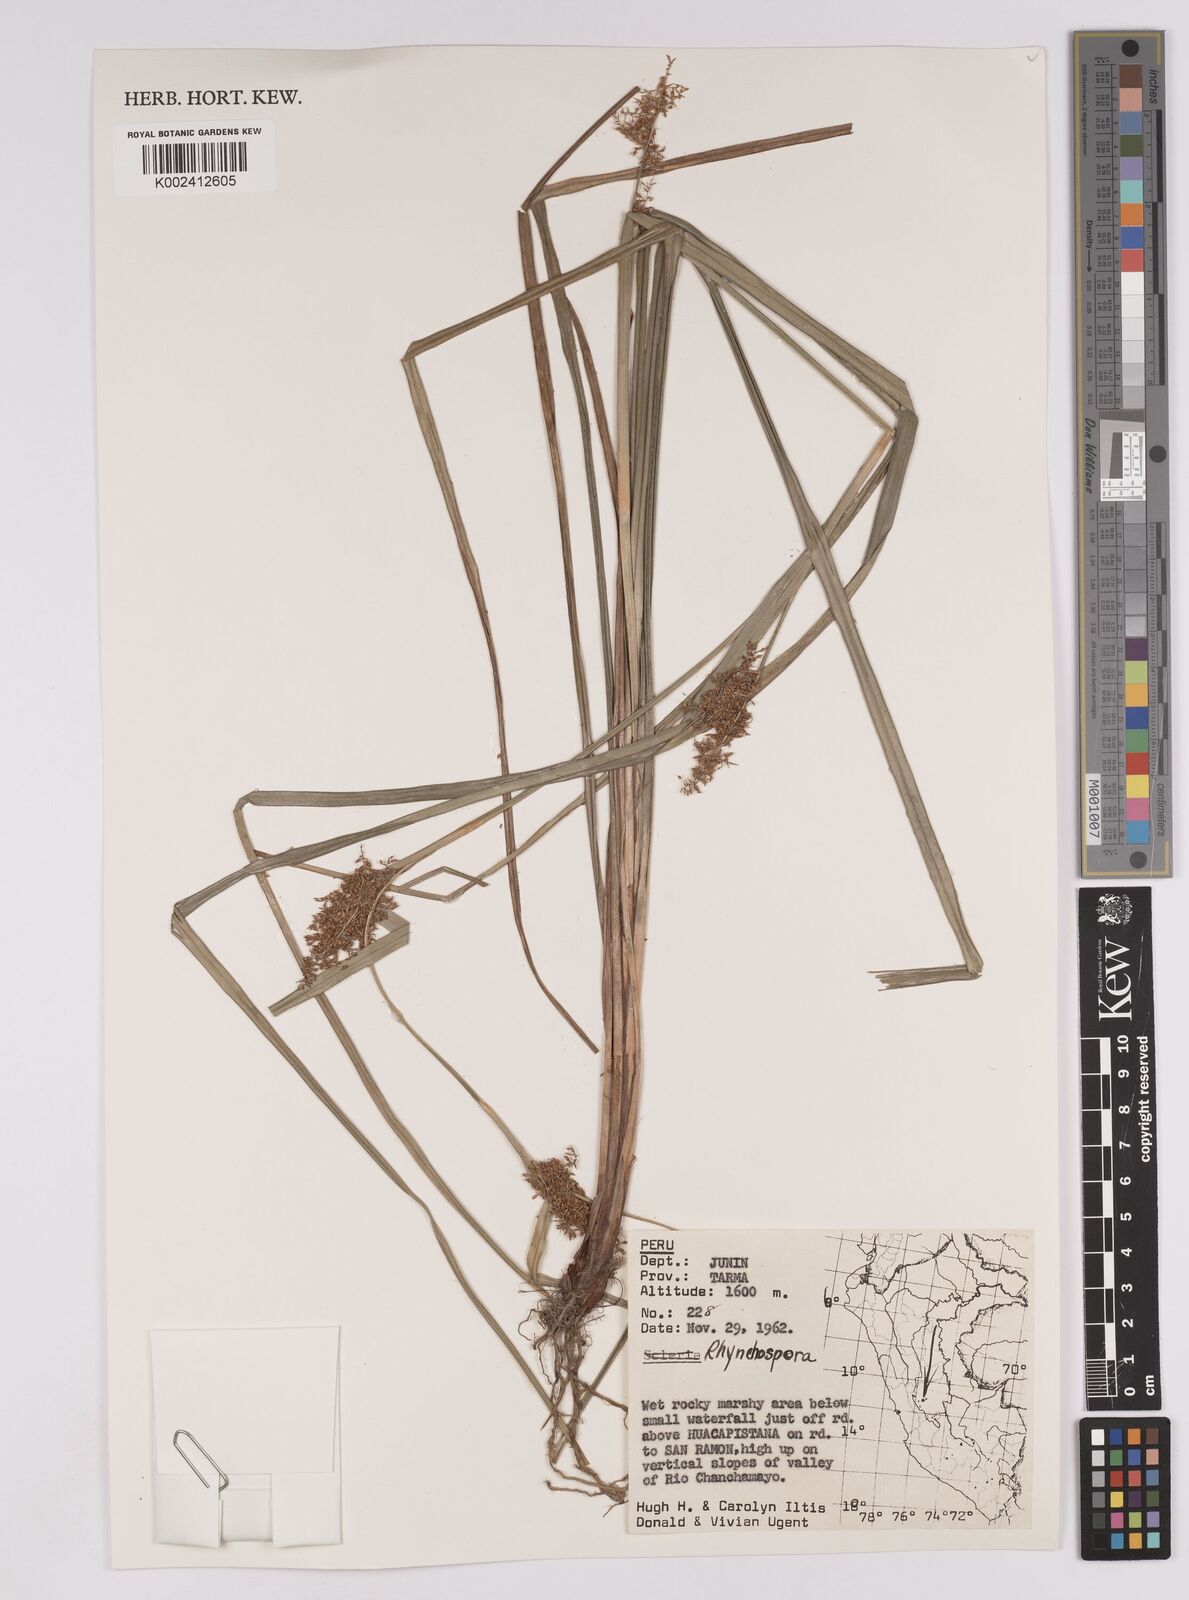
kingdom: Plantae
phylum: Tracheophyta
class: Liliopsida
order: Poales
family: Cyperaceae
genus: Rhynchospora
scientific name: Rhynchospora
